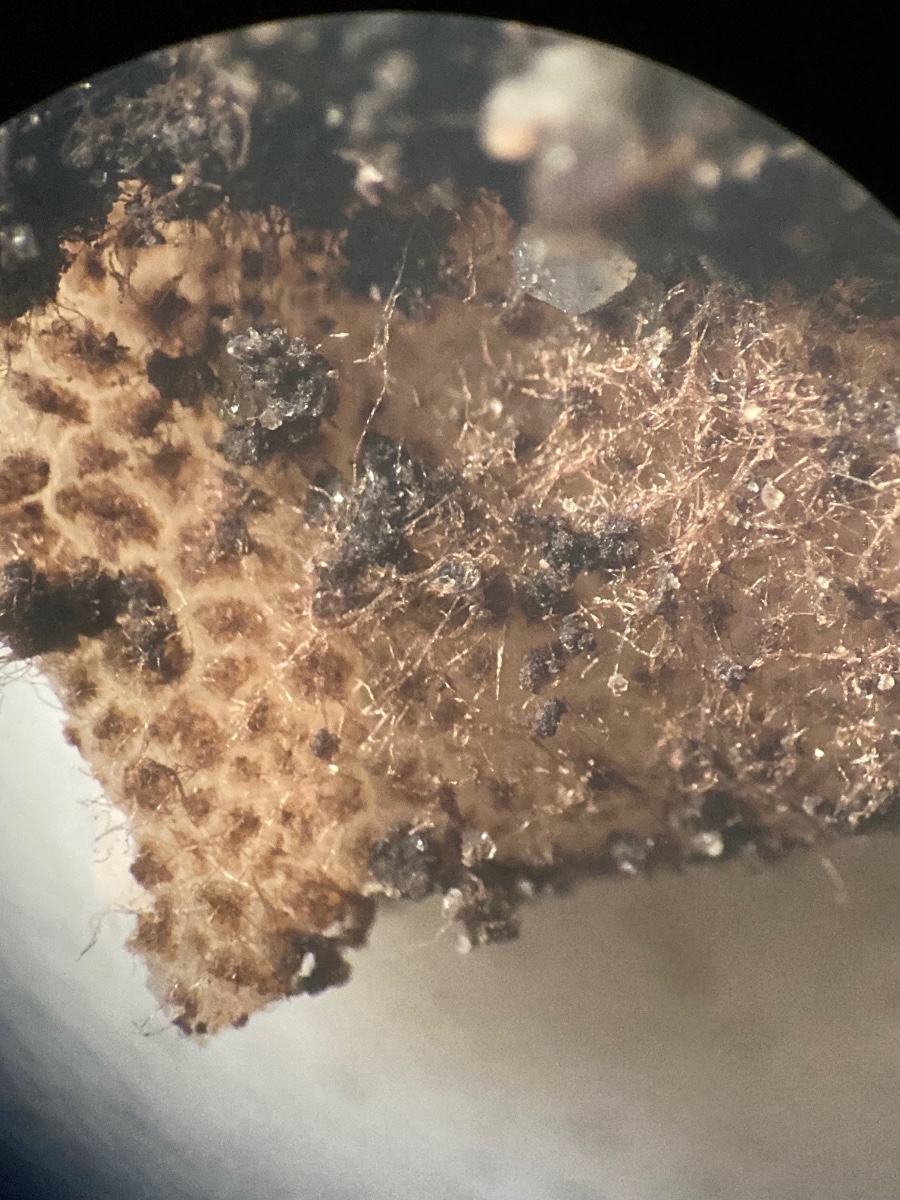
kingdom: Fungi
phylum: Ascomycota
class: Pezizomycetes
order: Pezizales
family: Pyronemataceae
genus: Geopora
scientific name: Geopora
